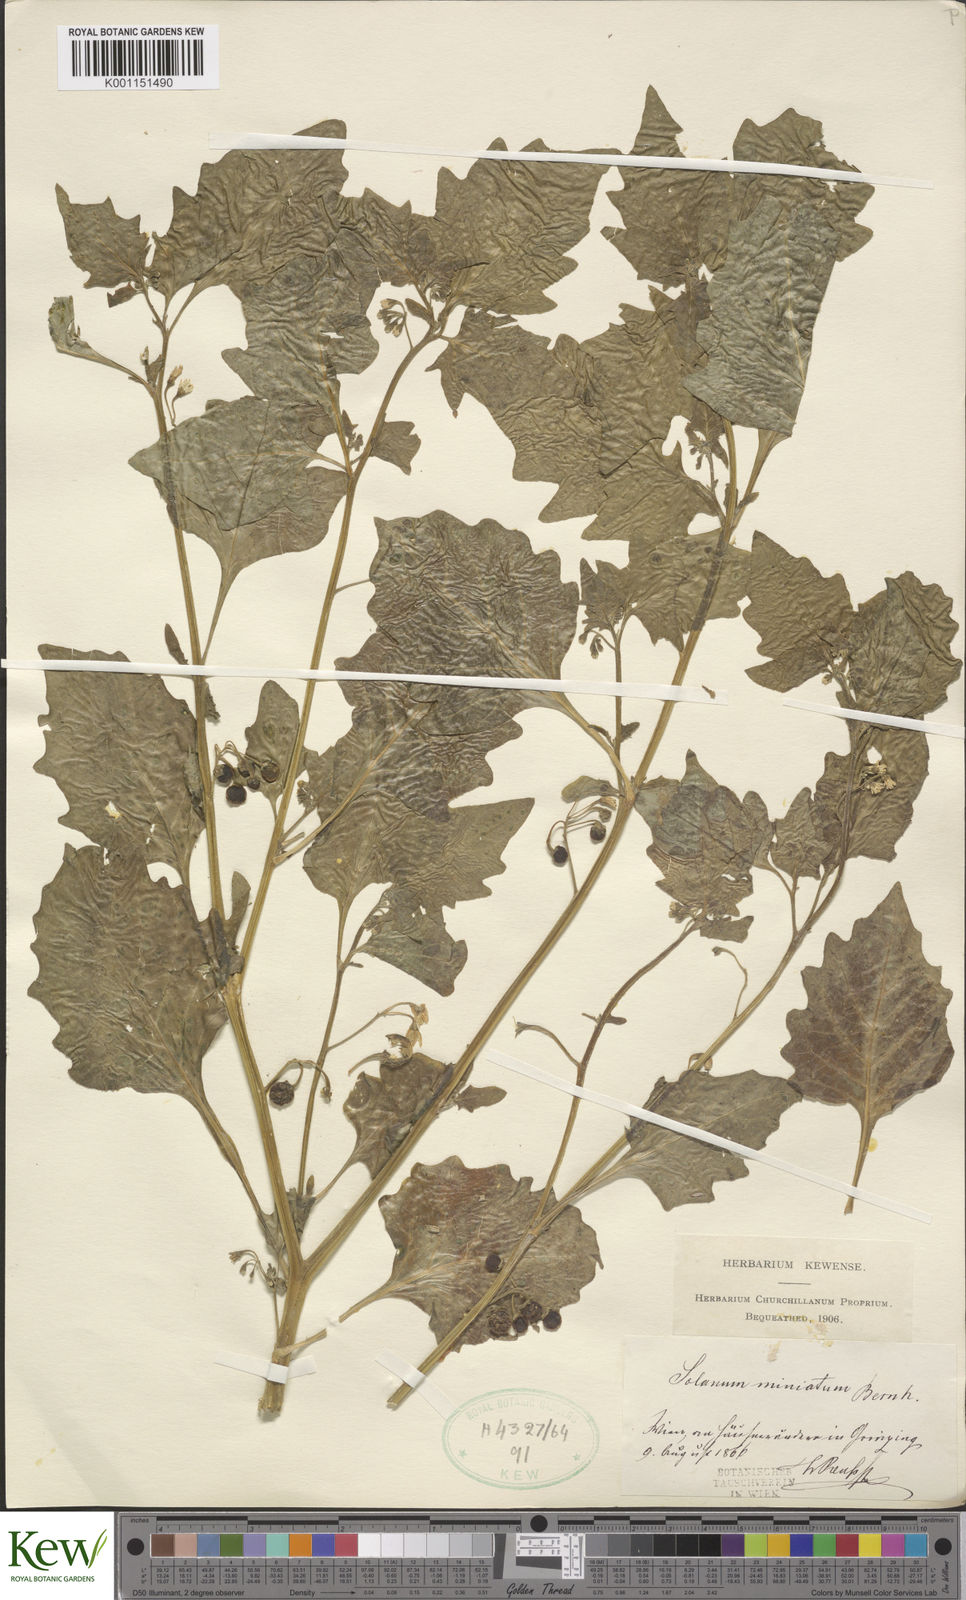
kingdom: Plantae
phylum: Tracheophyta
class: Magnoliopsida
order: Solanales
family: Solanaceae
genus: Solanum
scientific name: Solanum alatum
